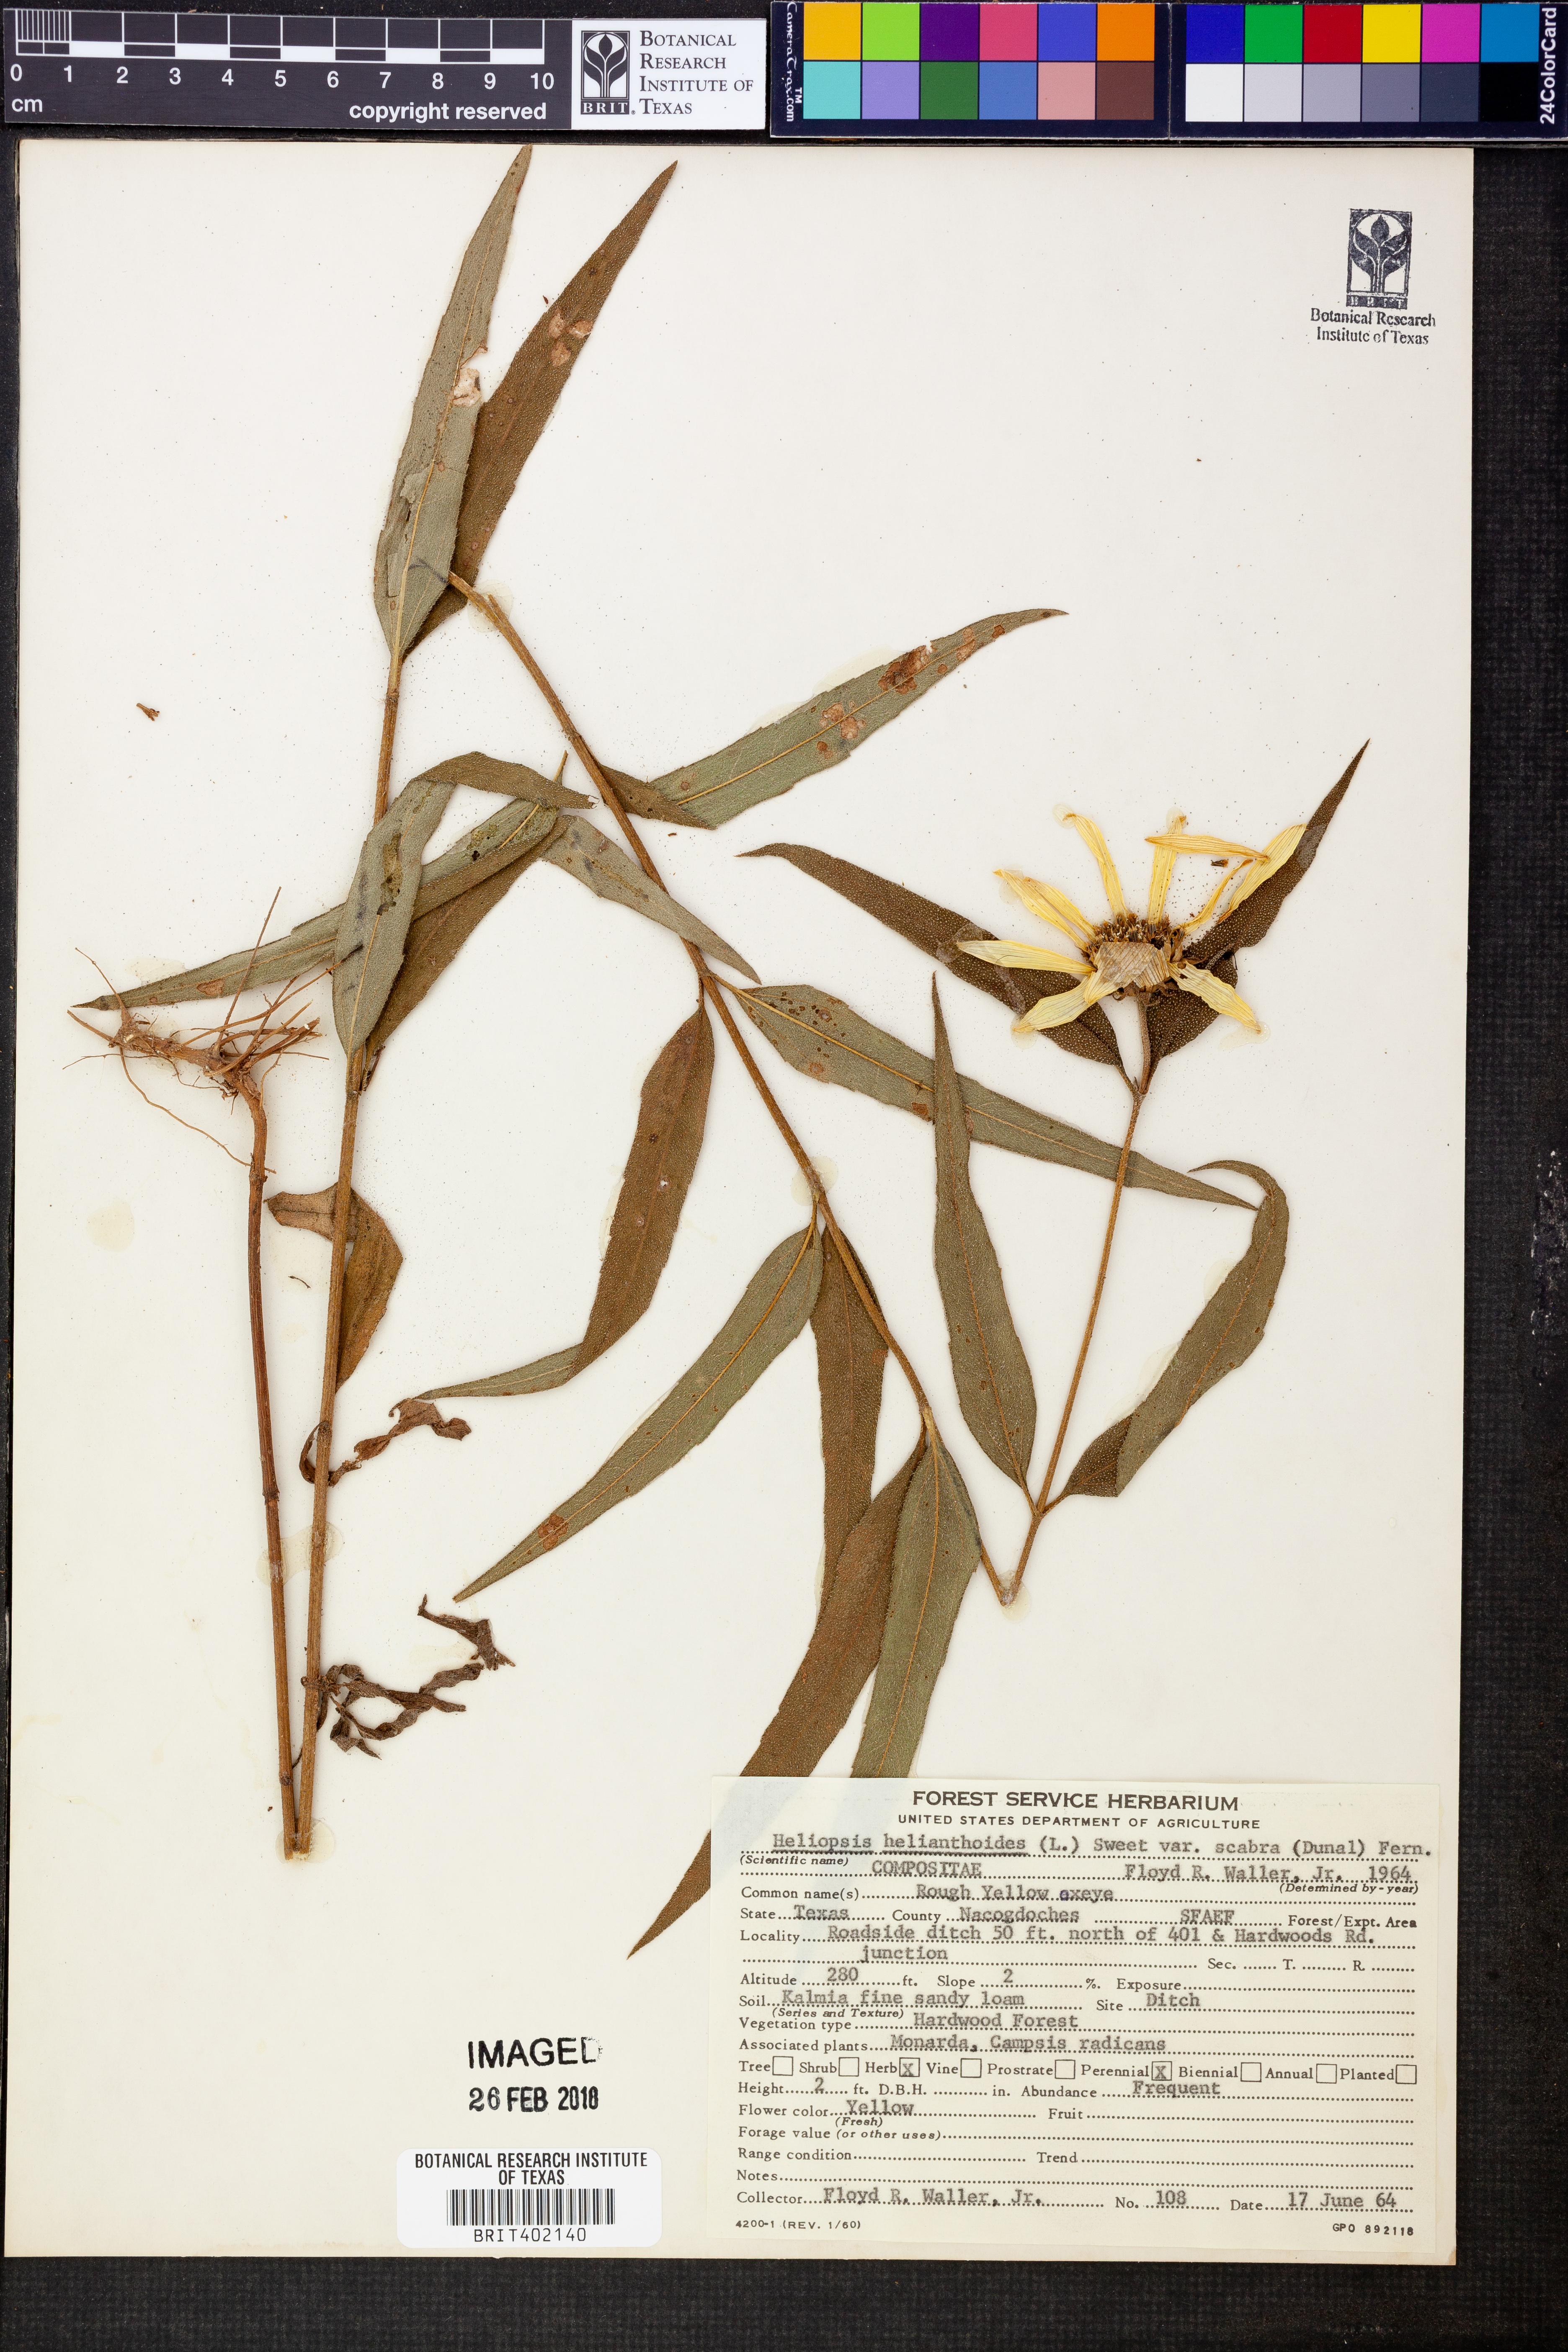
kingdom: Plantae
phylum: Tracheophyta
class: Magnoliopsida
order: Asterales
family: Asteraceae
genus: Heliopsis
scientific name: Heliopsis helianthoides
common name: False sunflower
